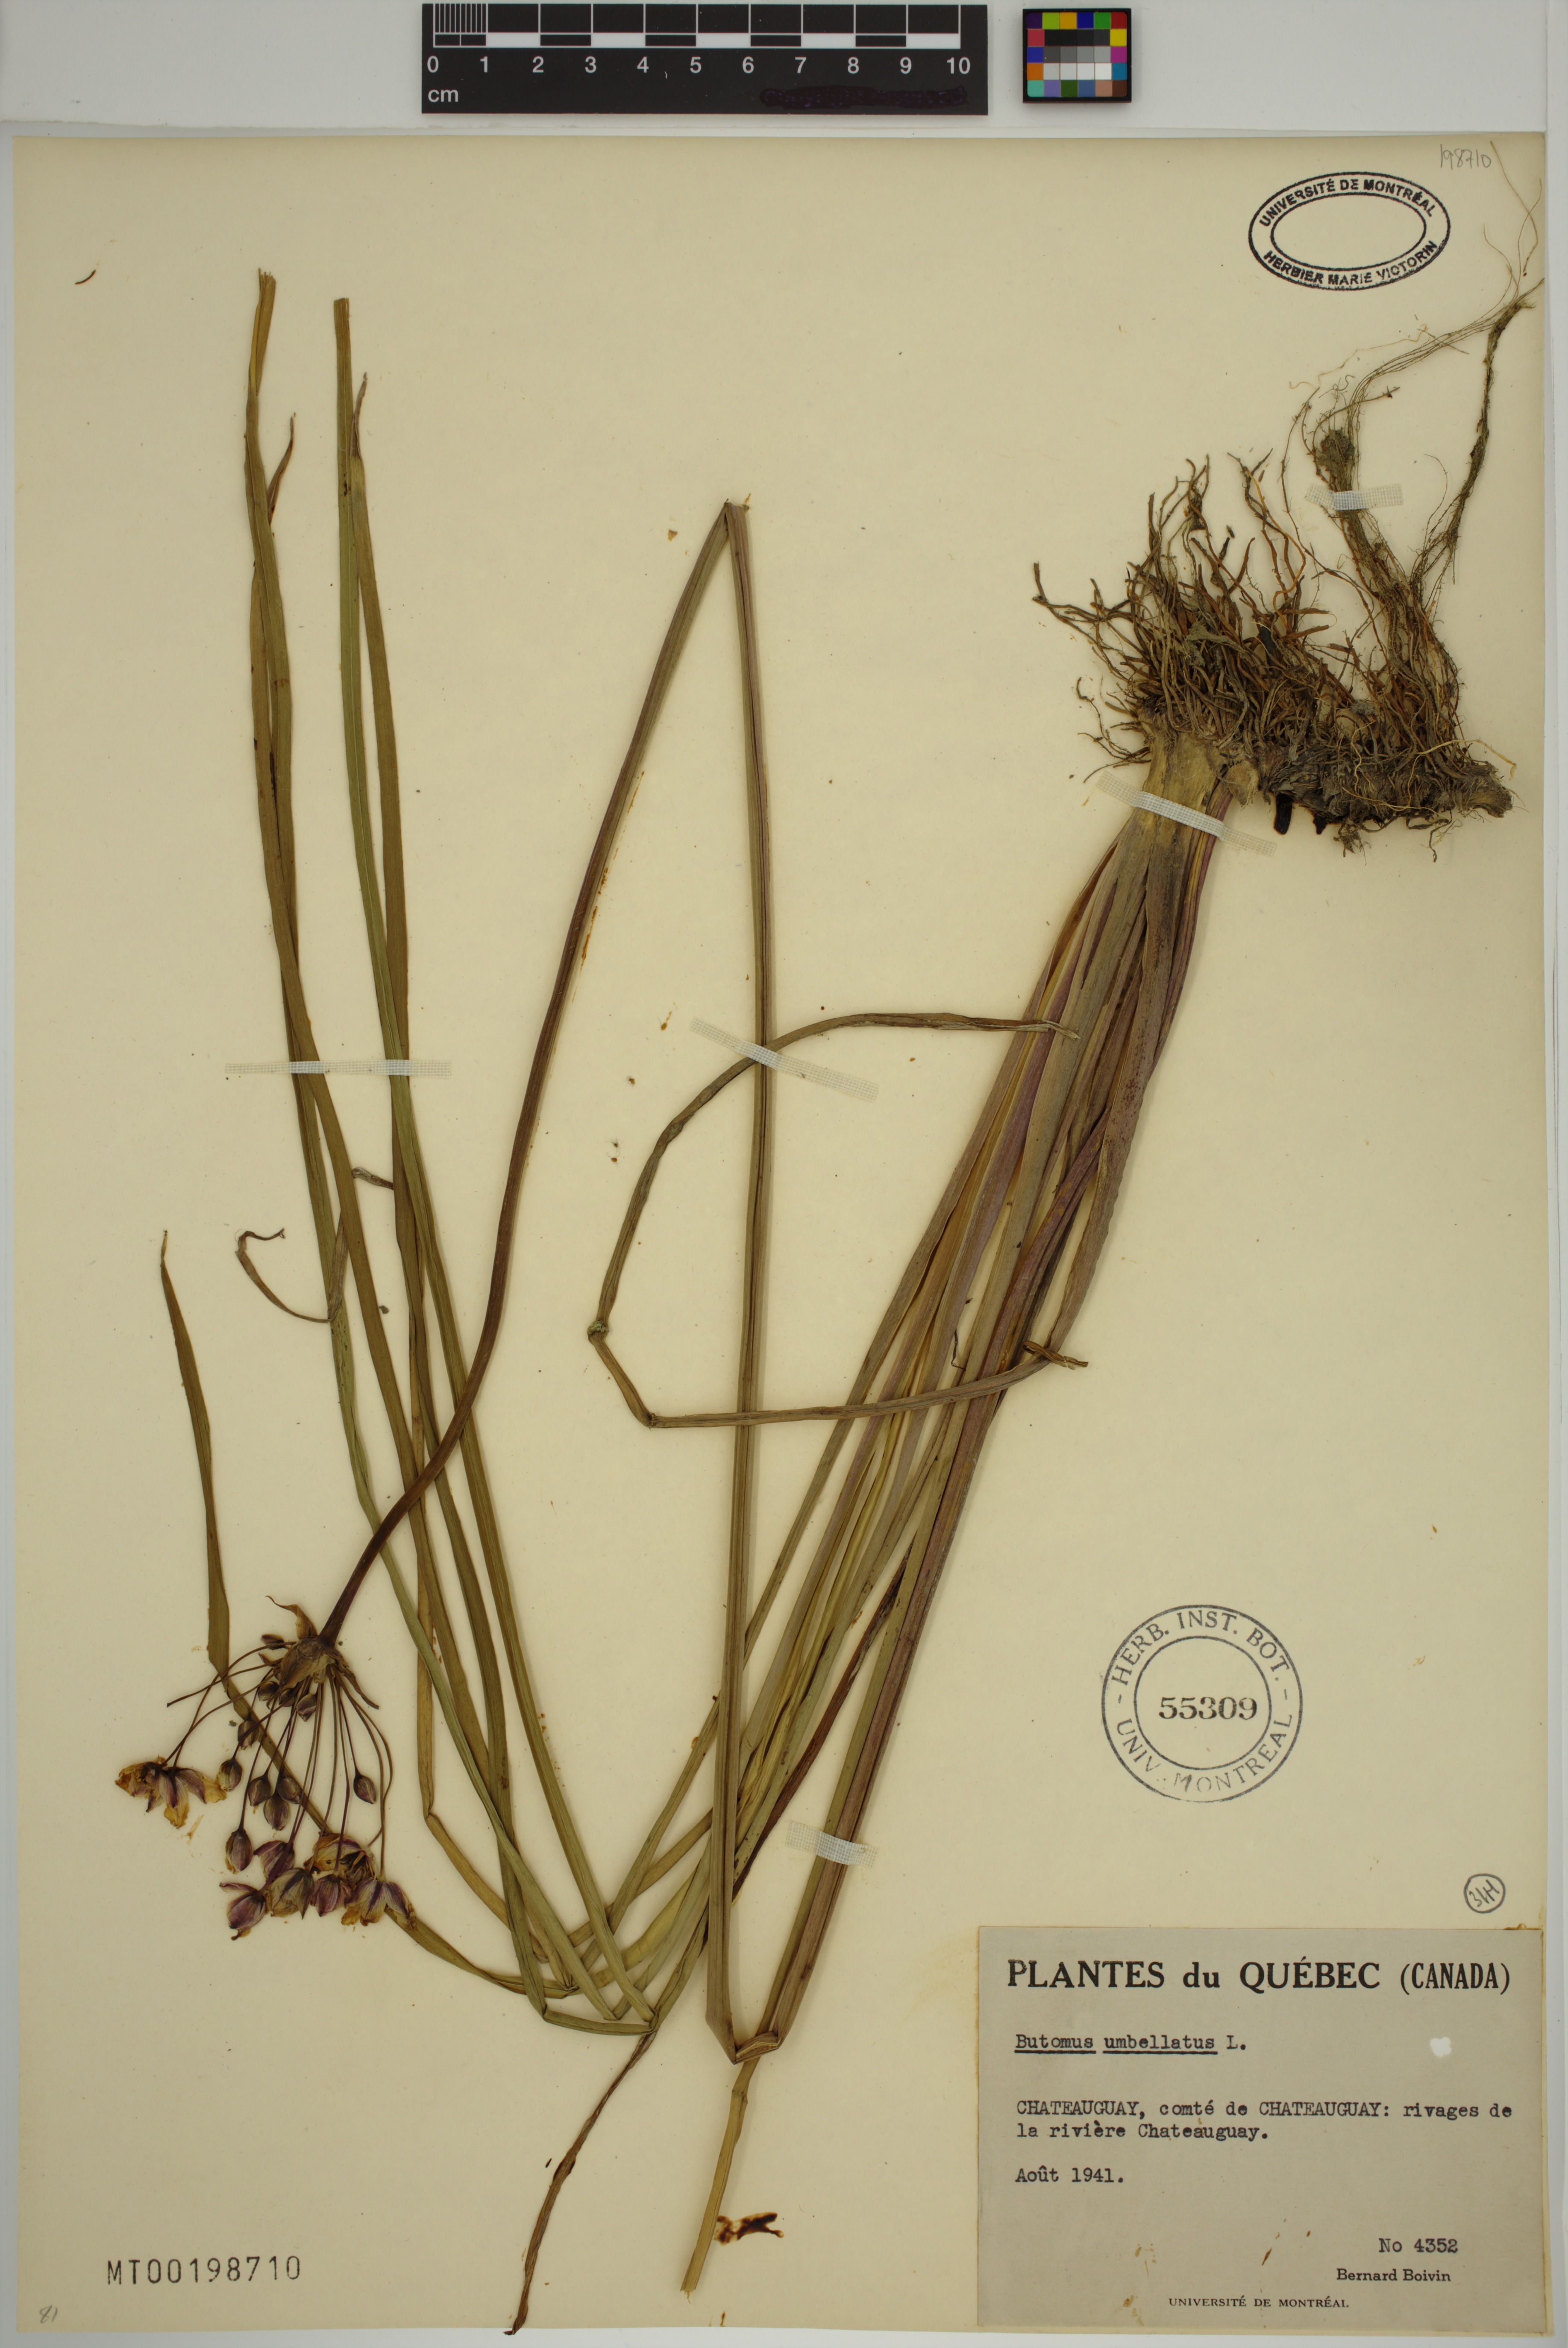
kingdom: Plantae
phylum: Tracheophyta
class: Liliopsida
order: Alismatales
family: Butomaceae
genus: Butomus
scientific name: Butomus umbellatus
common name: Flowering-rush
